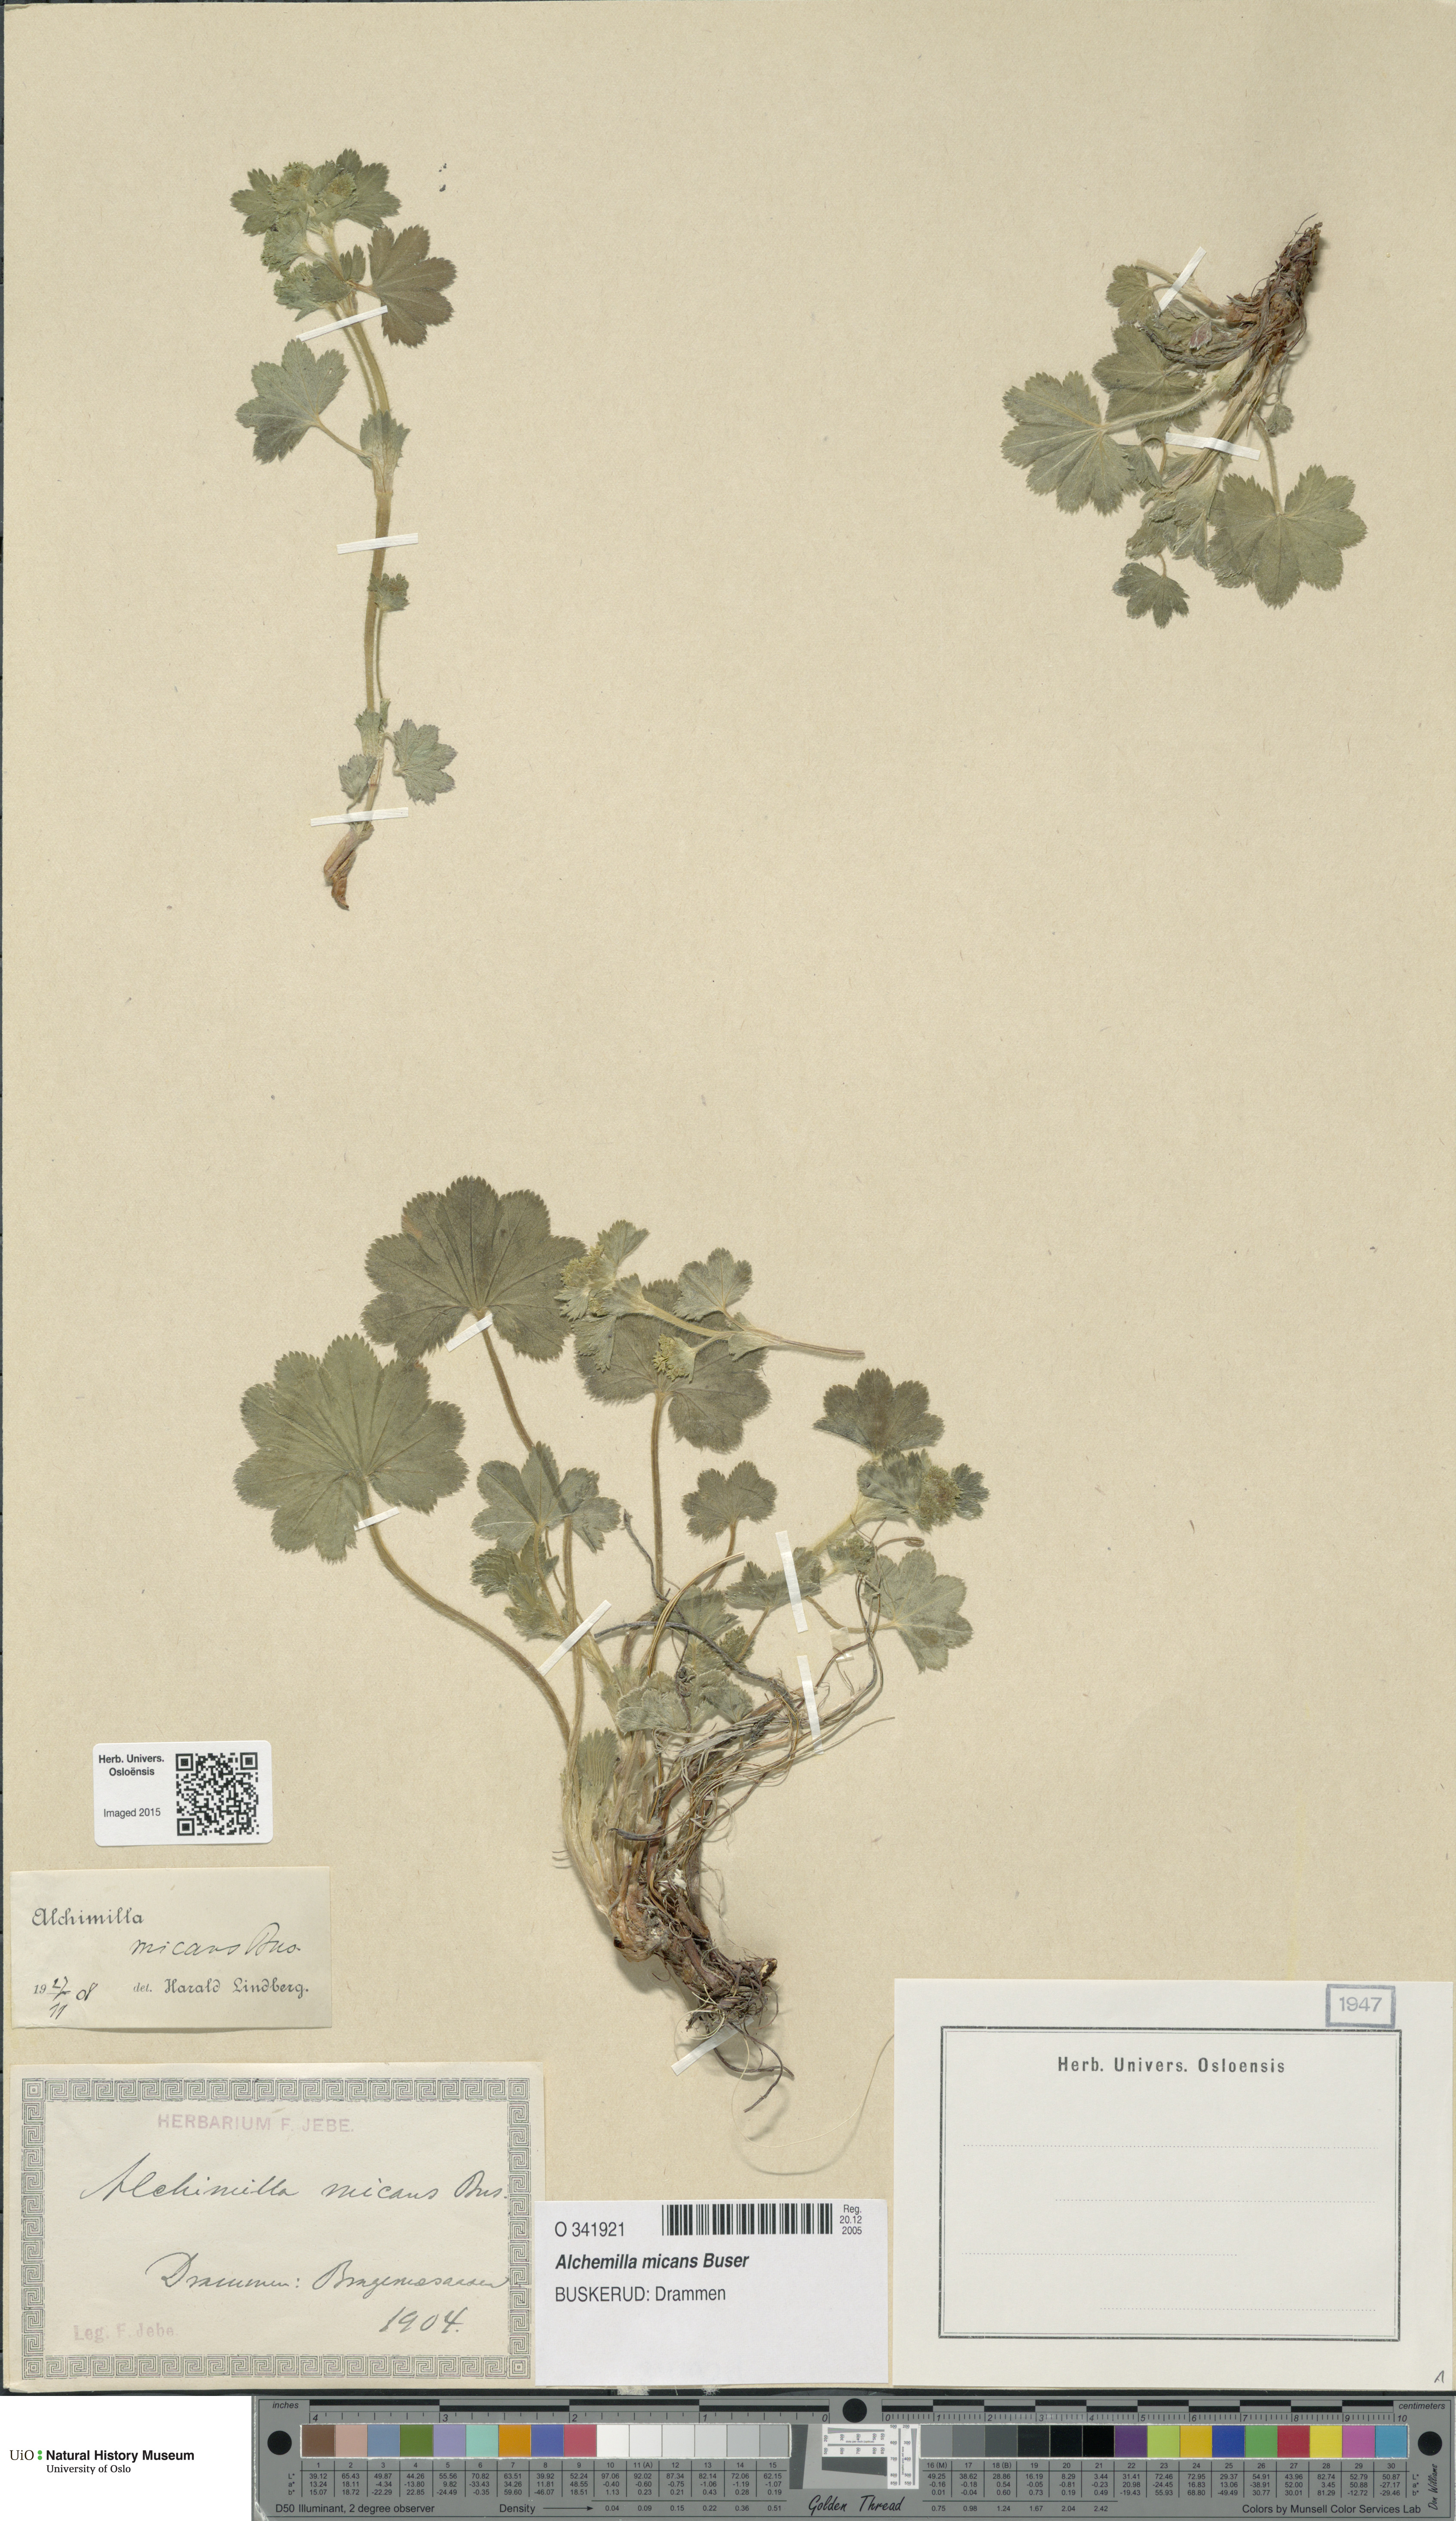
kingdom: Plantae
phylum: Tracheophyta
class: Magnoliopsida
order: Rosales
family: Rosaceae
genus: Alchemilla
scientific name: Alchemilla micans
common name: Gleaming lady's mantle
